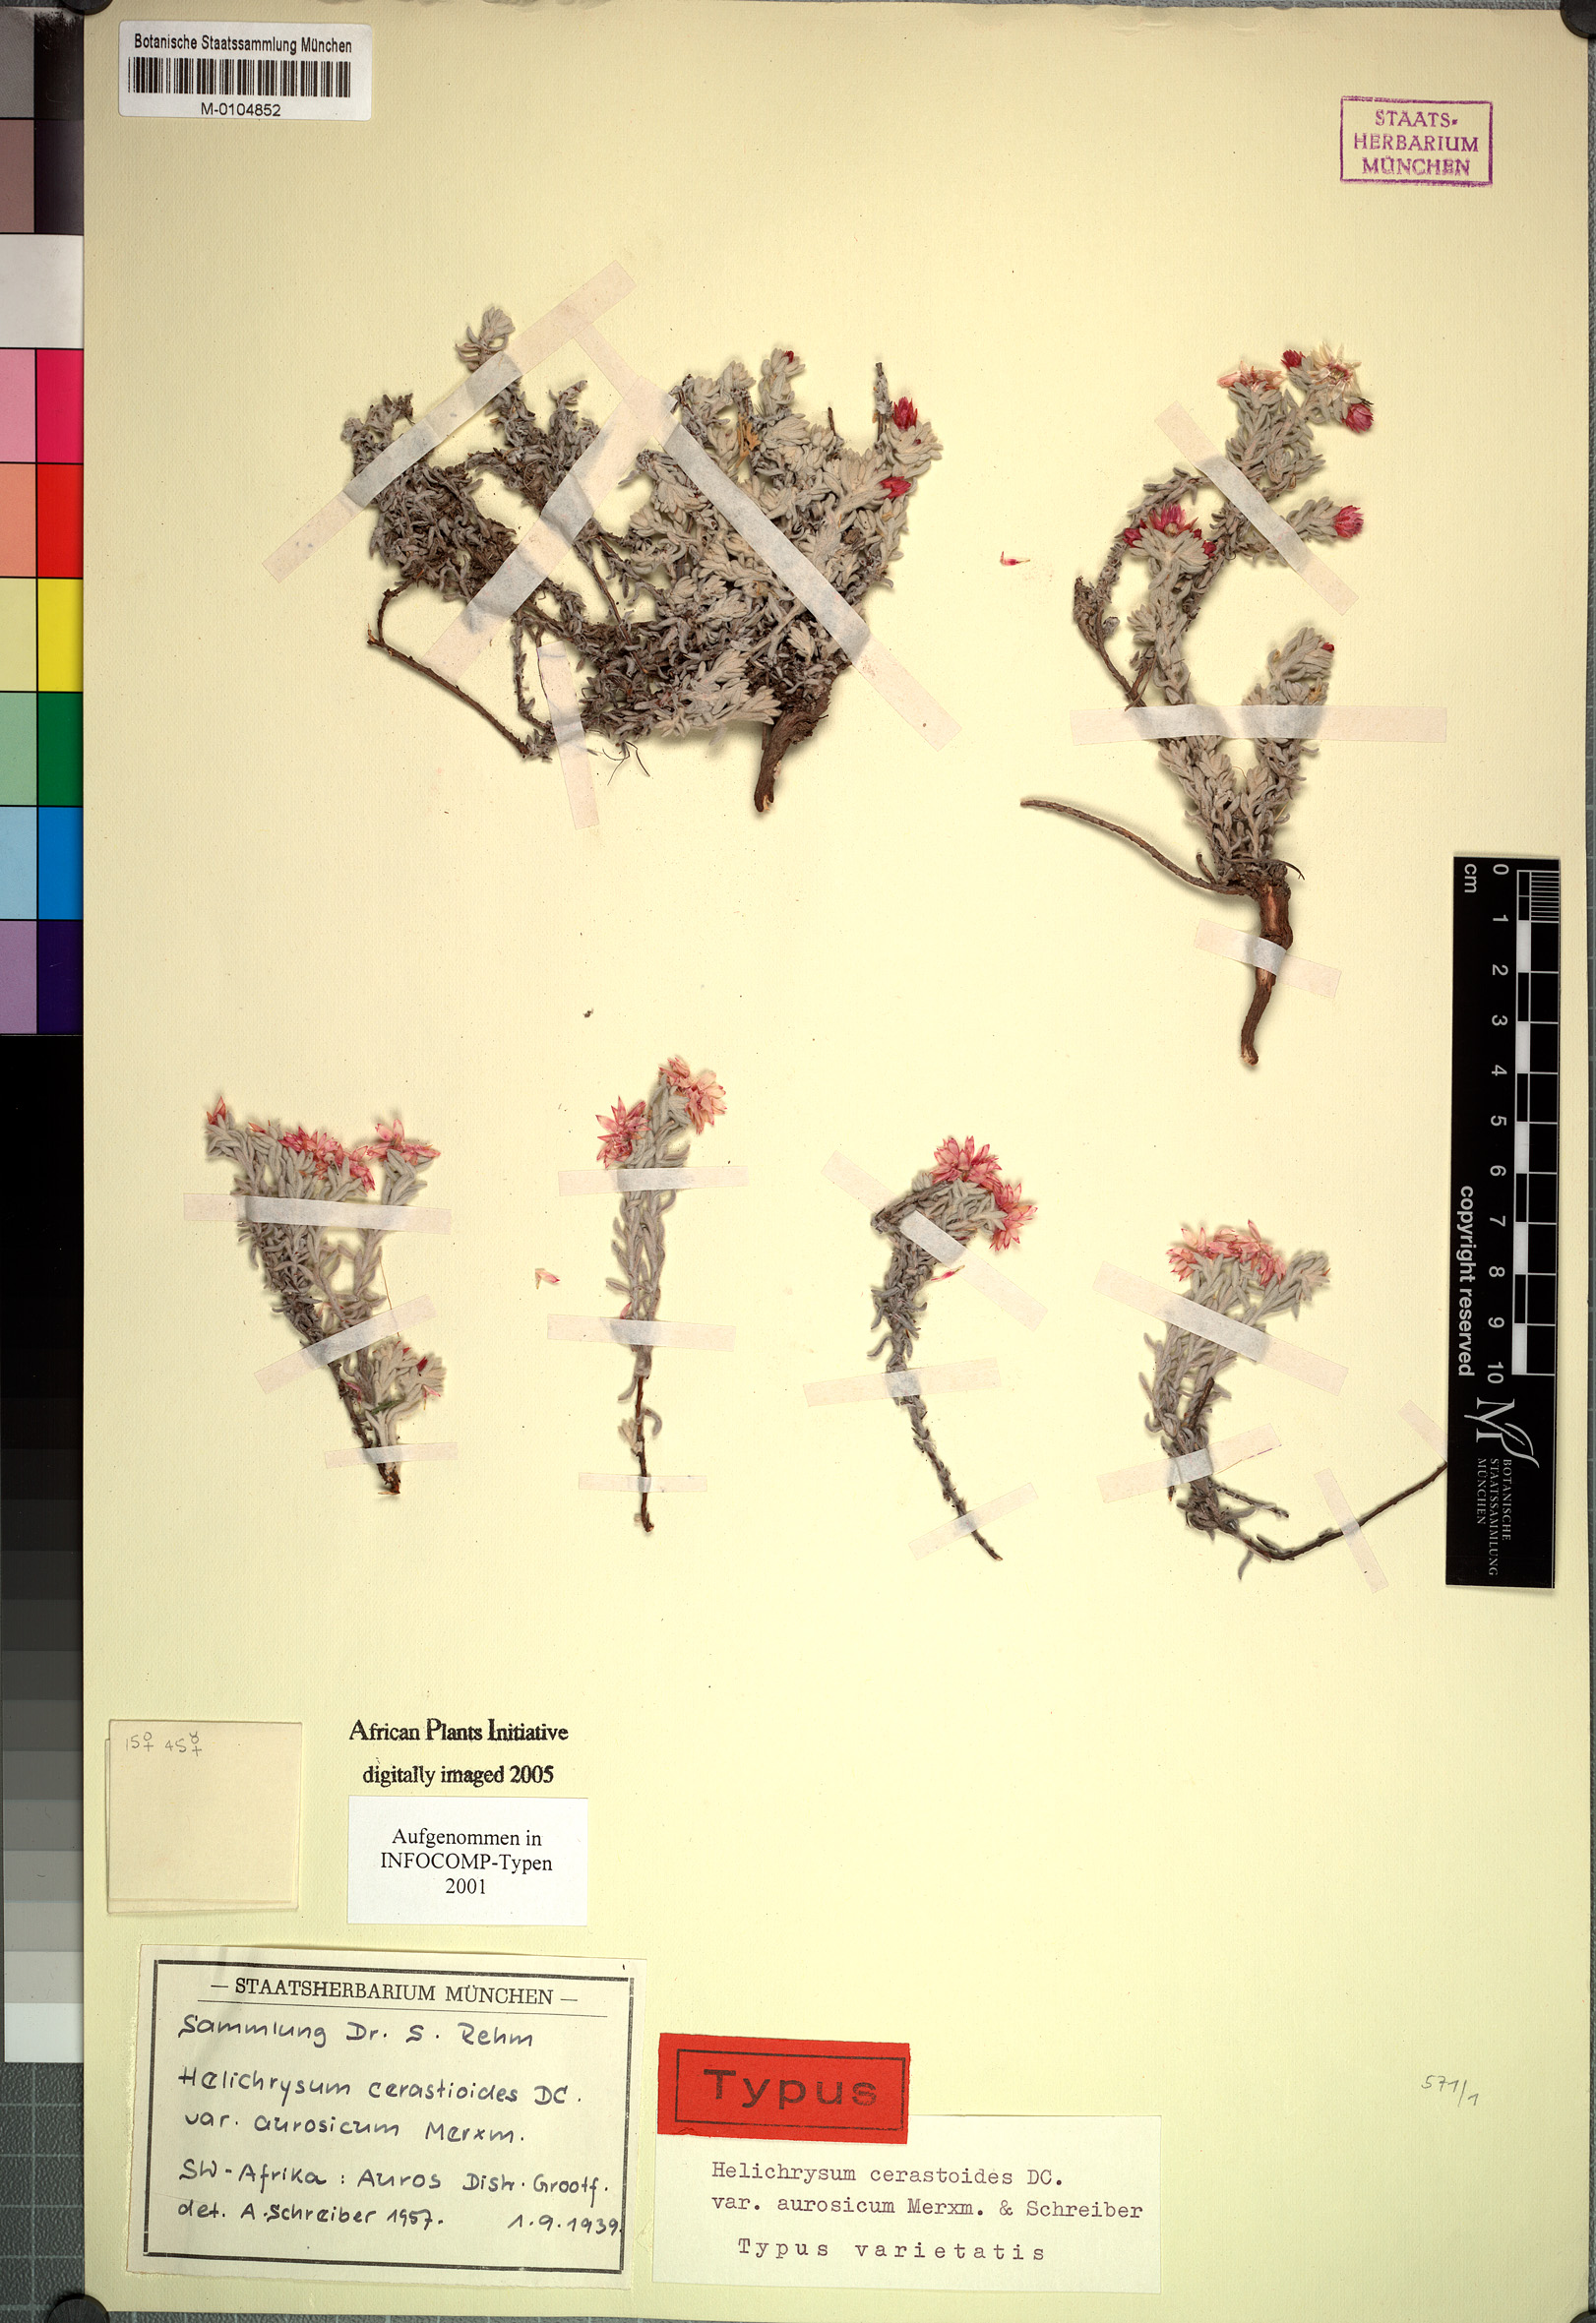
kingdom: Plantae
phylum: Tracheophyta
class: Magnoliopsida
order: Asterales
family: Asteraceae
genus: Helichrysum
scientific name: Helichrysum cerastioides
